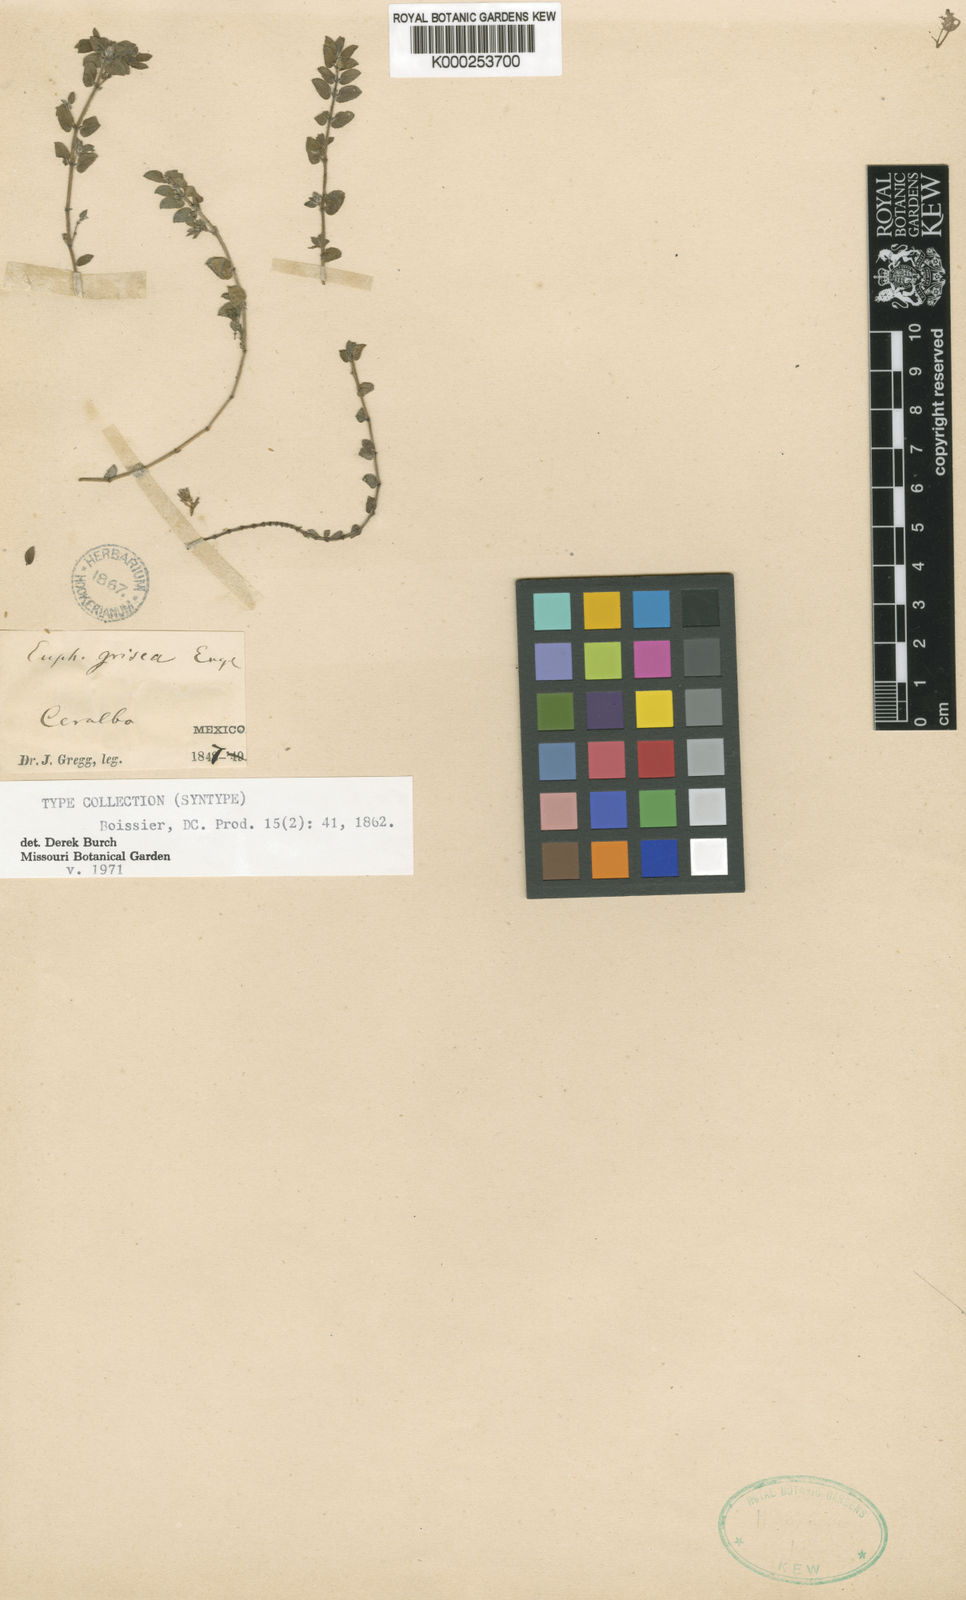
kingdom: Plantae
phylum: Tracheophyta
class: Magnoliopsida
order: Malpighiales
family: Euphorbiaceae
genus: Euphorbia
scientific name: Euphorbia grisea
